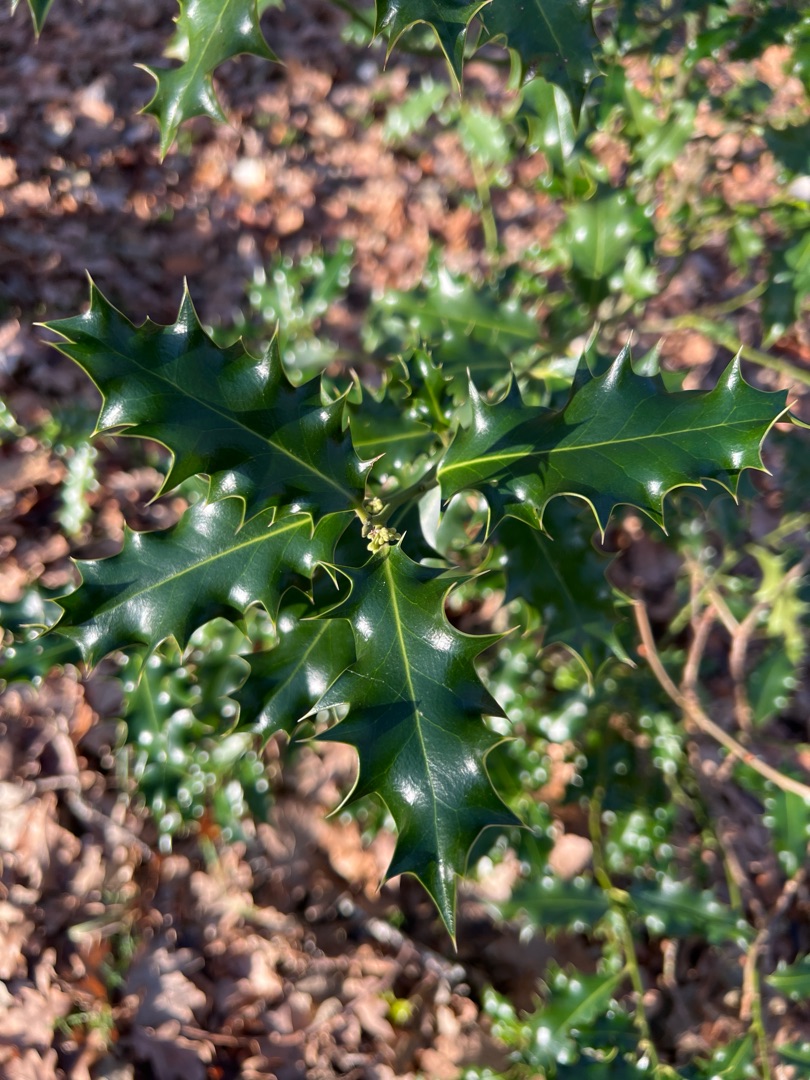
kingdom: Plantae
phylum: Tracheophyta
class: Magnoliopsida
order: Aquifoliales
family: Aquifoliaceae
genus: Ilex
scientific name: Ilex aquifolium
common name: Kristtorn
